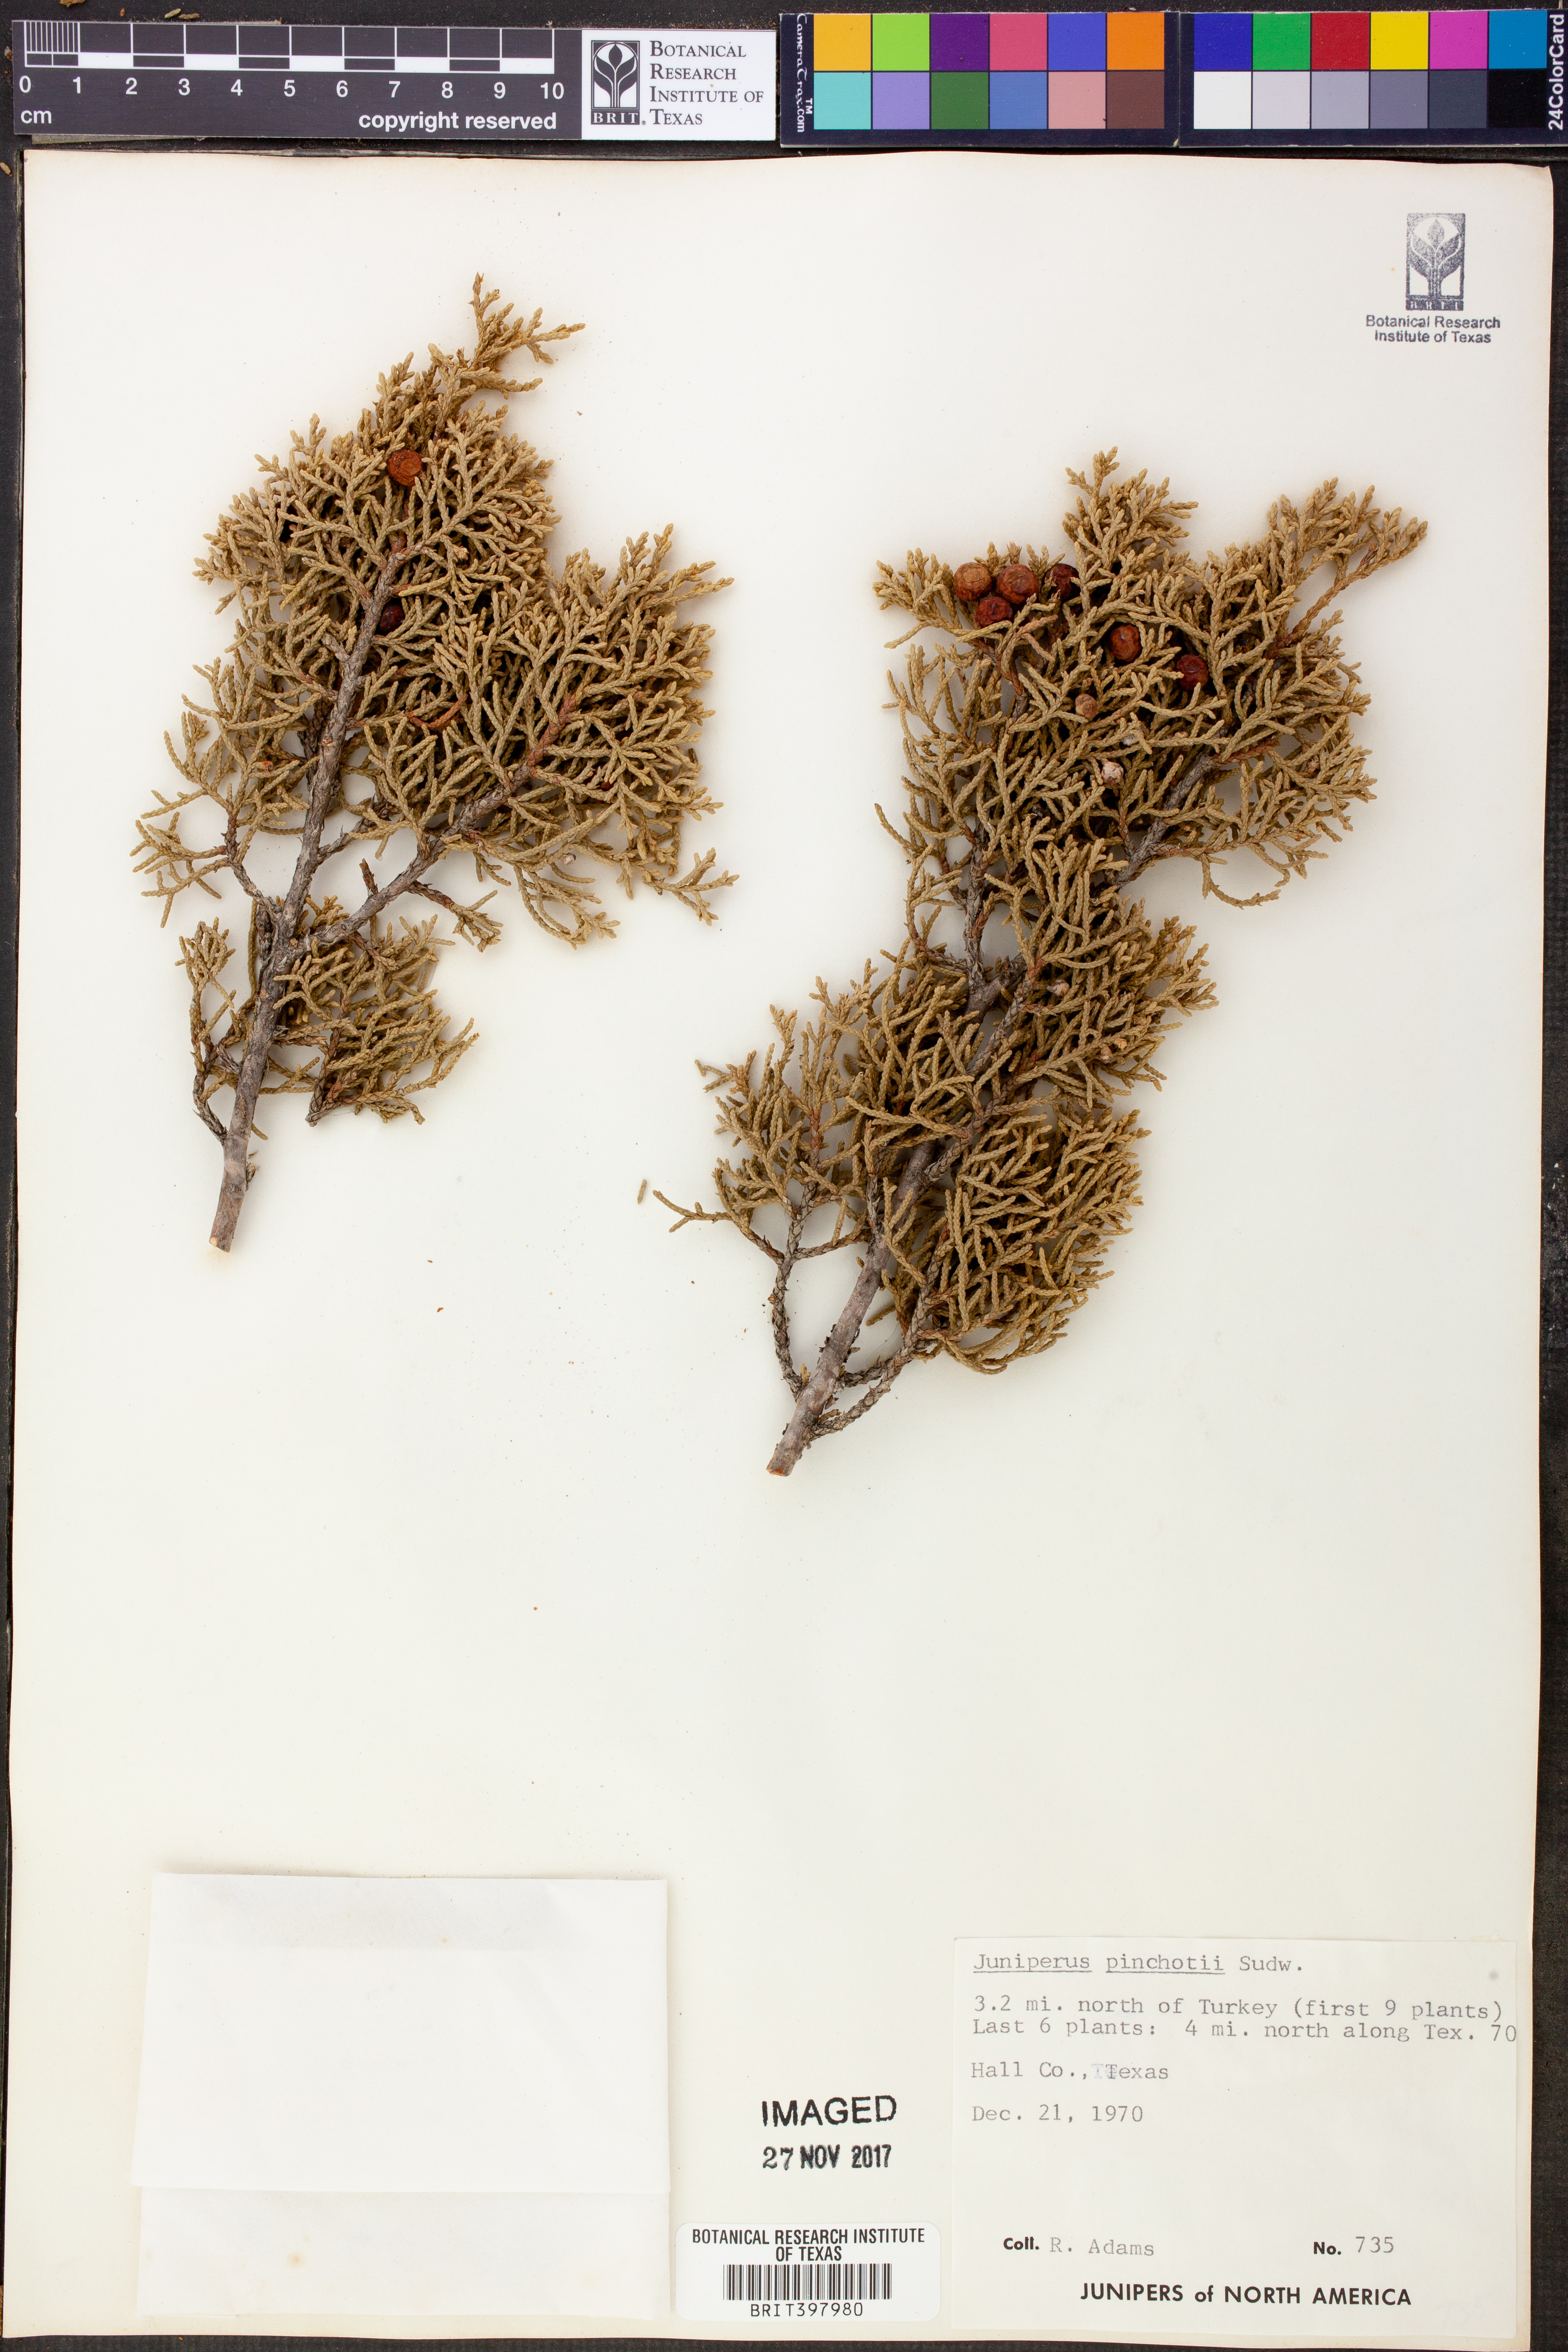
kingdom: Plantae
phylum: Tracheophyta
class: Pinopsida
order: Pinales
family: Cupressaceae
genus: Juniperus
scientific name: Juniperus pinchotii
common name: Pinchot juniper
